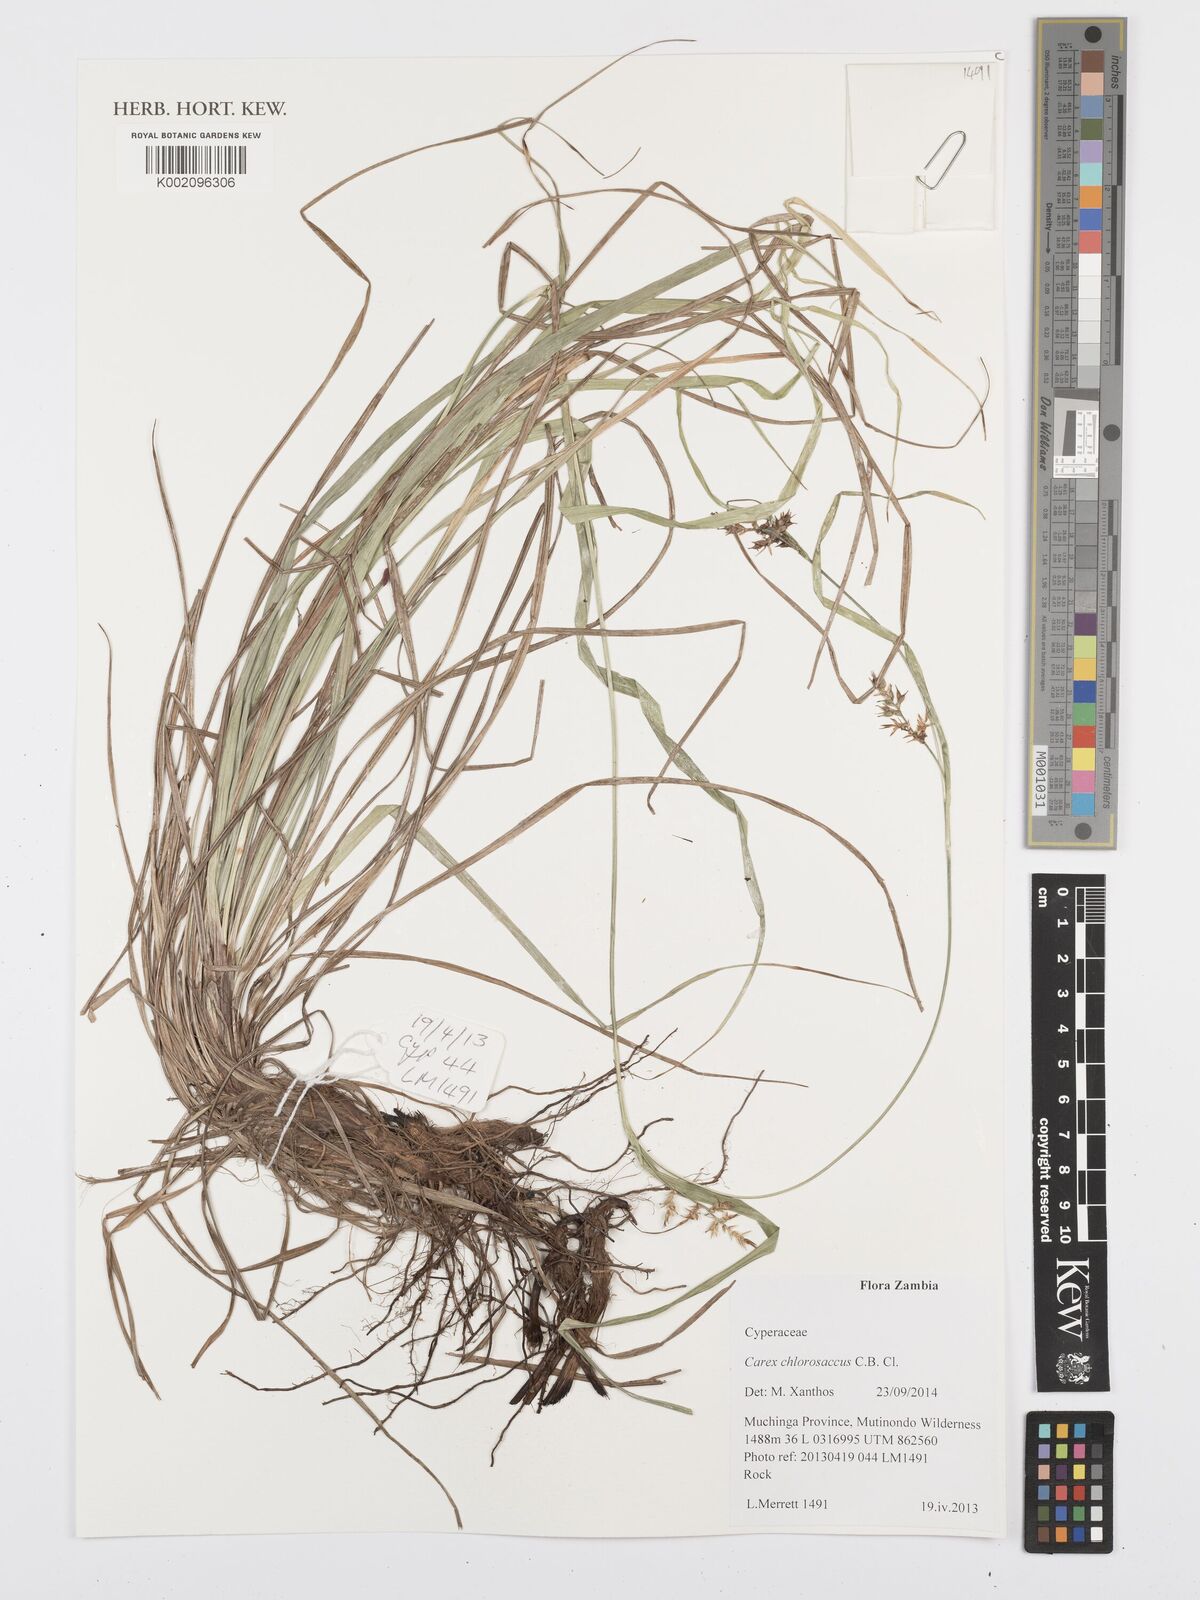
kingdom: Plantae
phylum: Tracheophyta
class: Liliopsida
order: Poales
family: Cyperaceae
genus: Carex
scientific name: Carex chlorosaccus
